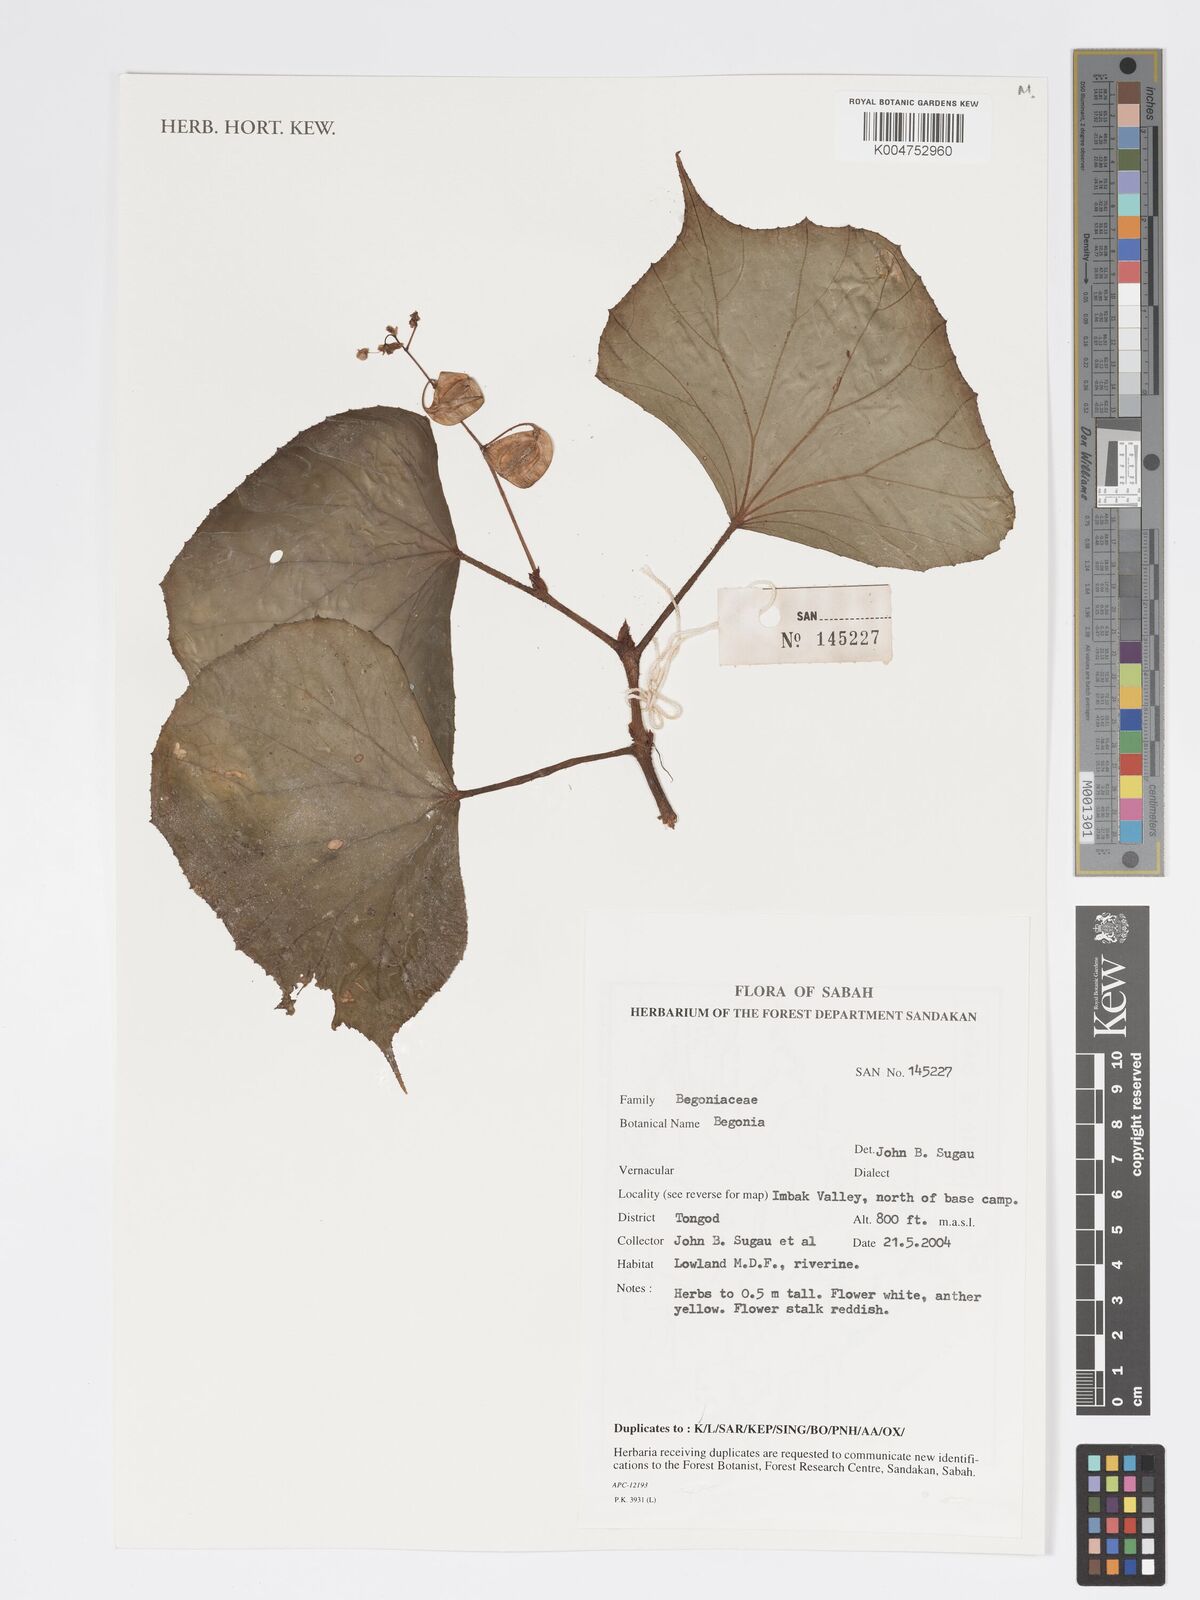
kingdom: Plantae
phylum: Tracheophyta
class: Magnoliopsida
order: Cucurbitales
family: Begoniaceae
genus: Begonia
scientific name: Begonia
